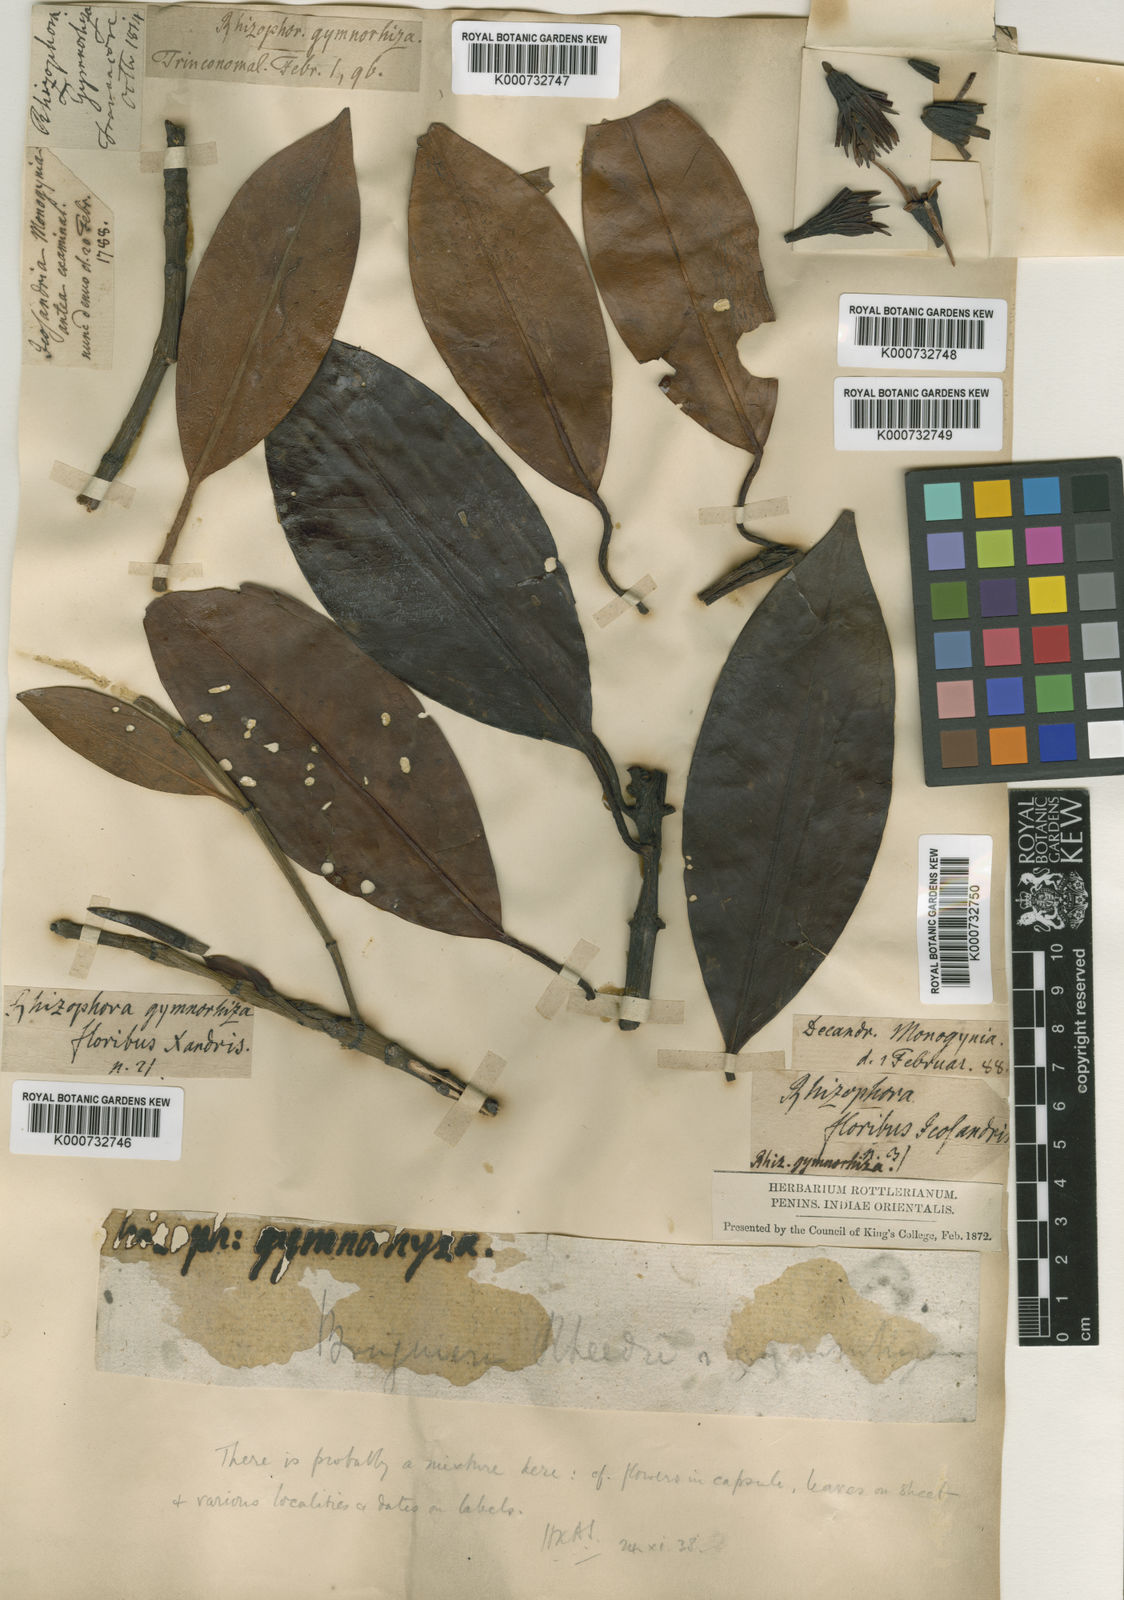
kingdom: Plantae
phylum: Tracheophyta
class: Magnoliopsida
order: Malpighiales
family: Rhizophoraceae
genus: Bruguiera
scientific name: Bruguiera
